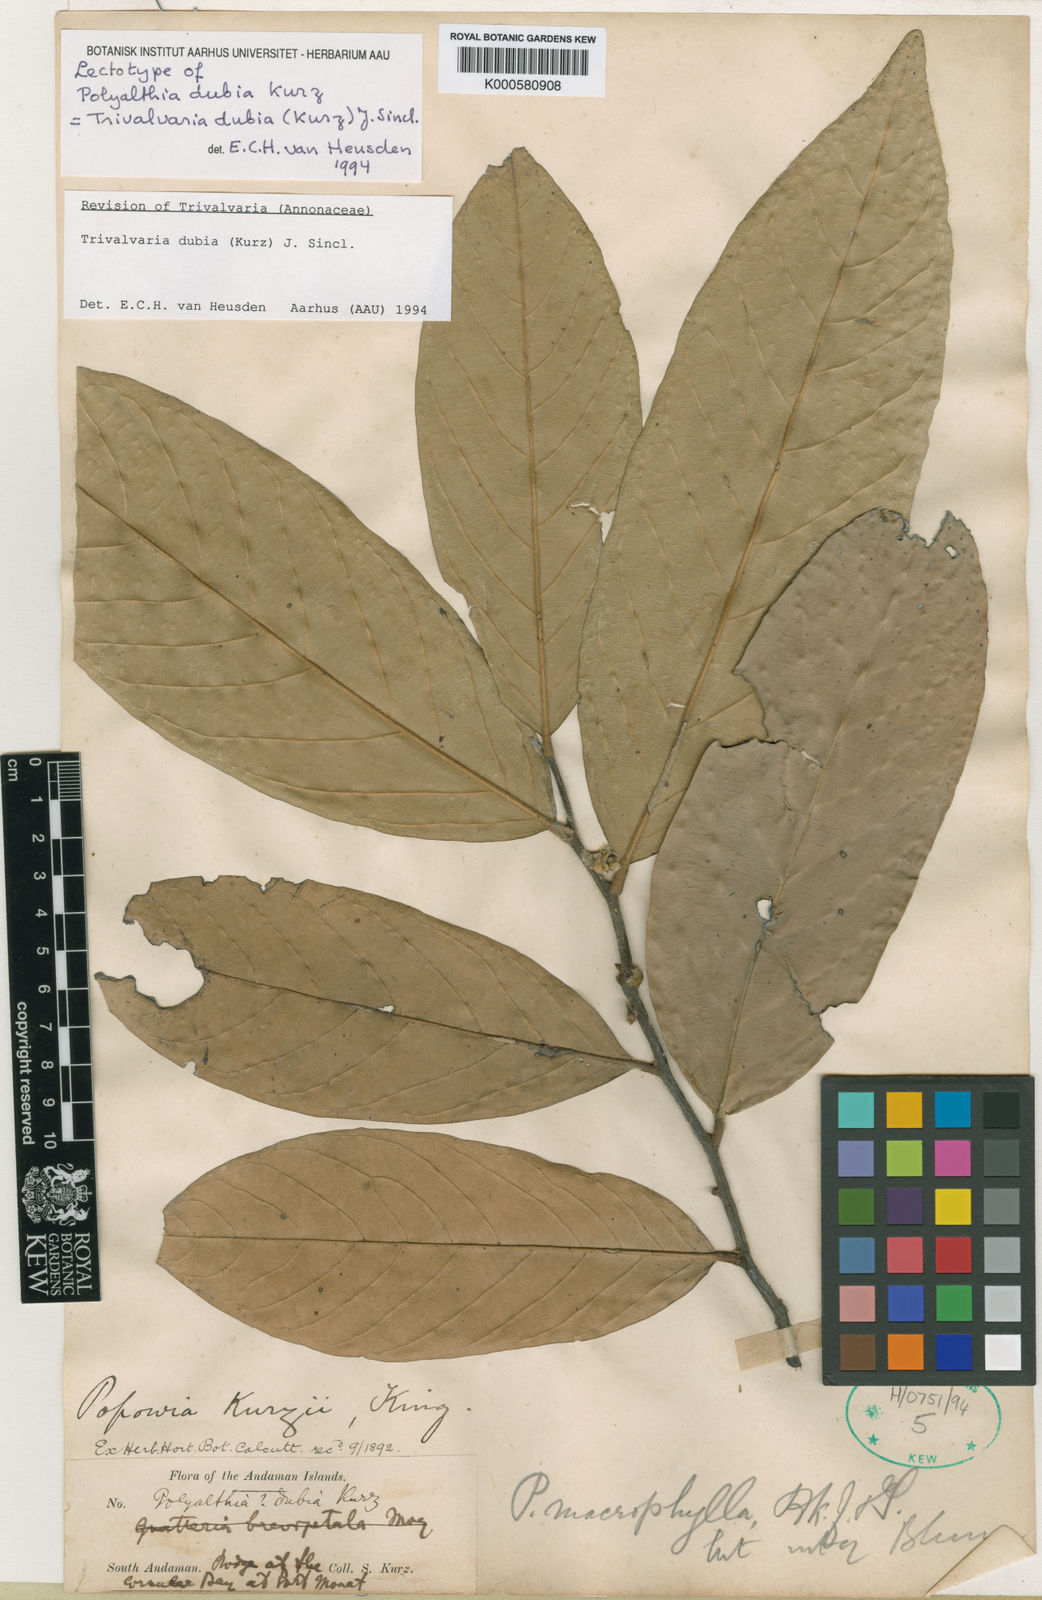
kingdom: Plantae
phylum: Tracheophyta
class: Magnoliopsida
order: Magnoliales
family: Annonaceae
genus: Trivalvaria
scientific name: Trivalvaria dubia
